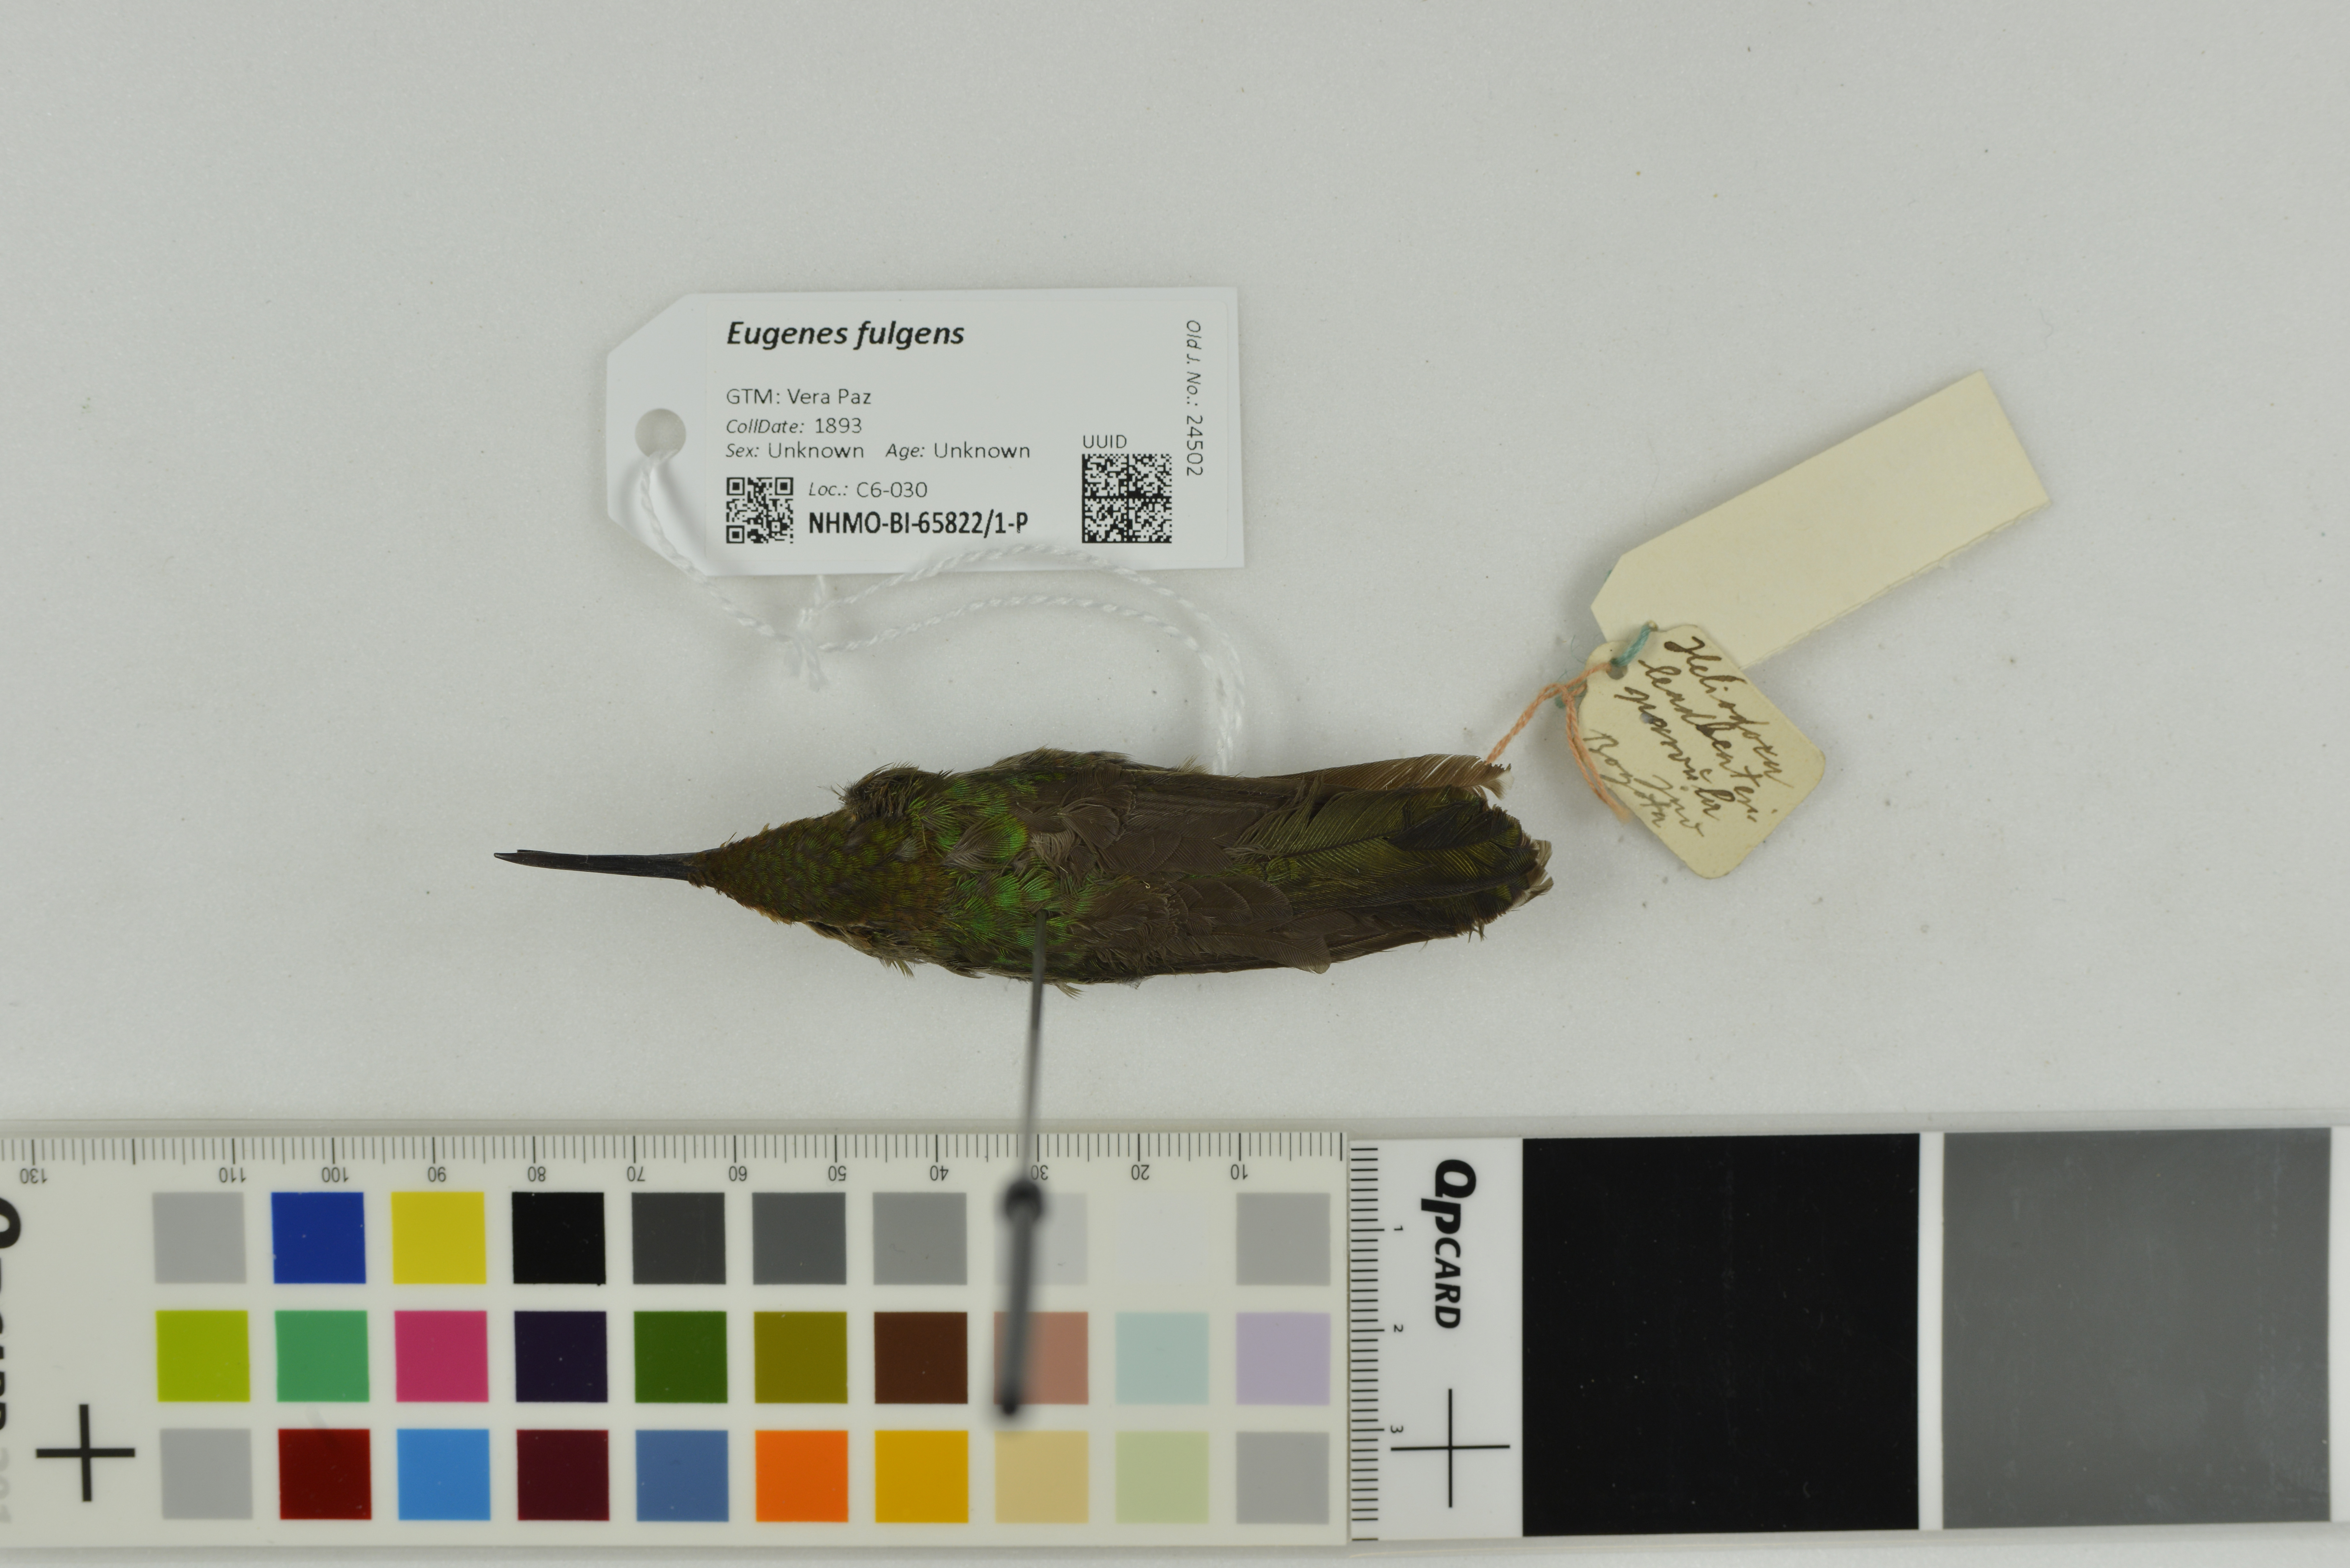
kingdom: Animalia
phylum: Chordata
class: Aves
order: Apodiformes
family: Trochilidae
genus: Eugenes
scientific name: Eugenes fulgens
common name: Magnificent hummingbird
